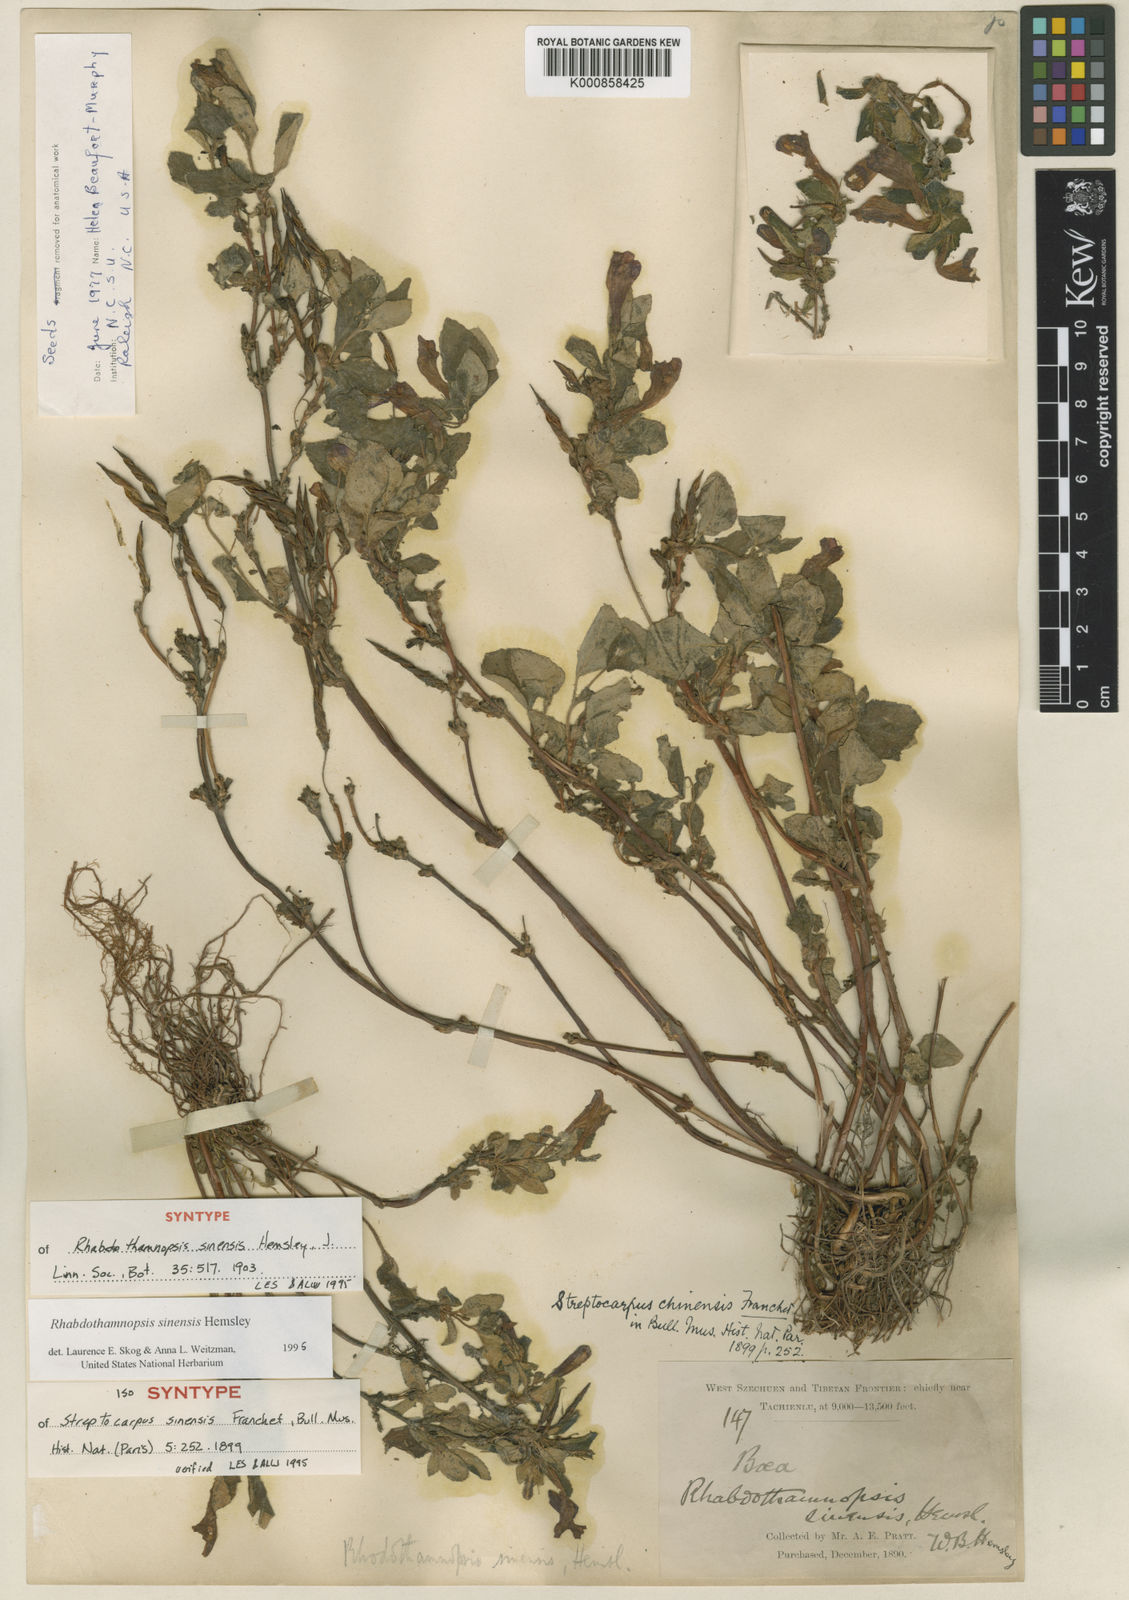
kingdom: Plantae
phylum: Tracheophyta
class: Magnoliopsida
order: Lamiales
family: Gesneriaceae
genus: Rhabdothamnopsis
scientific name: Rhabdothamnopsis sinensis
